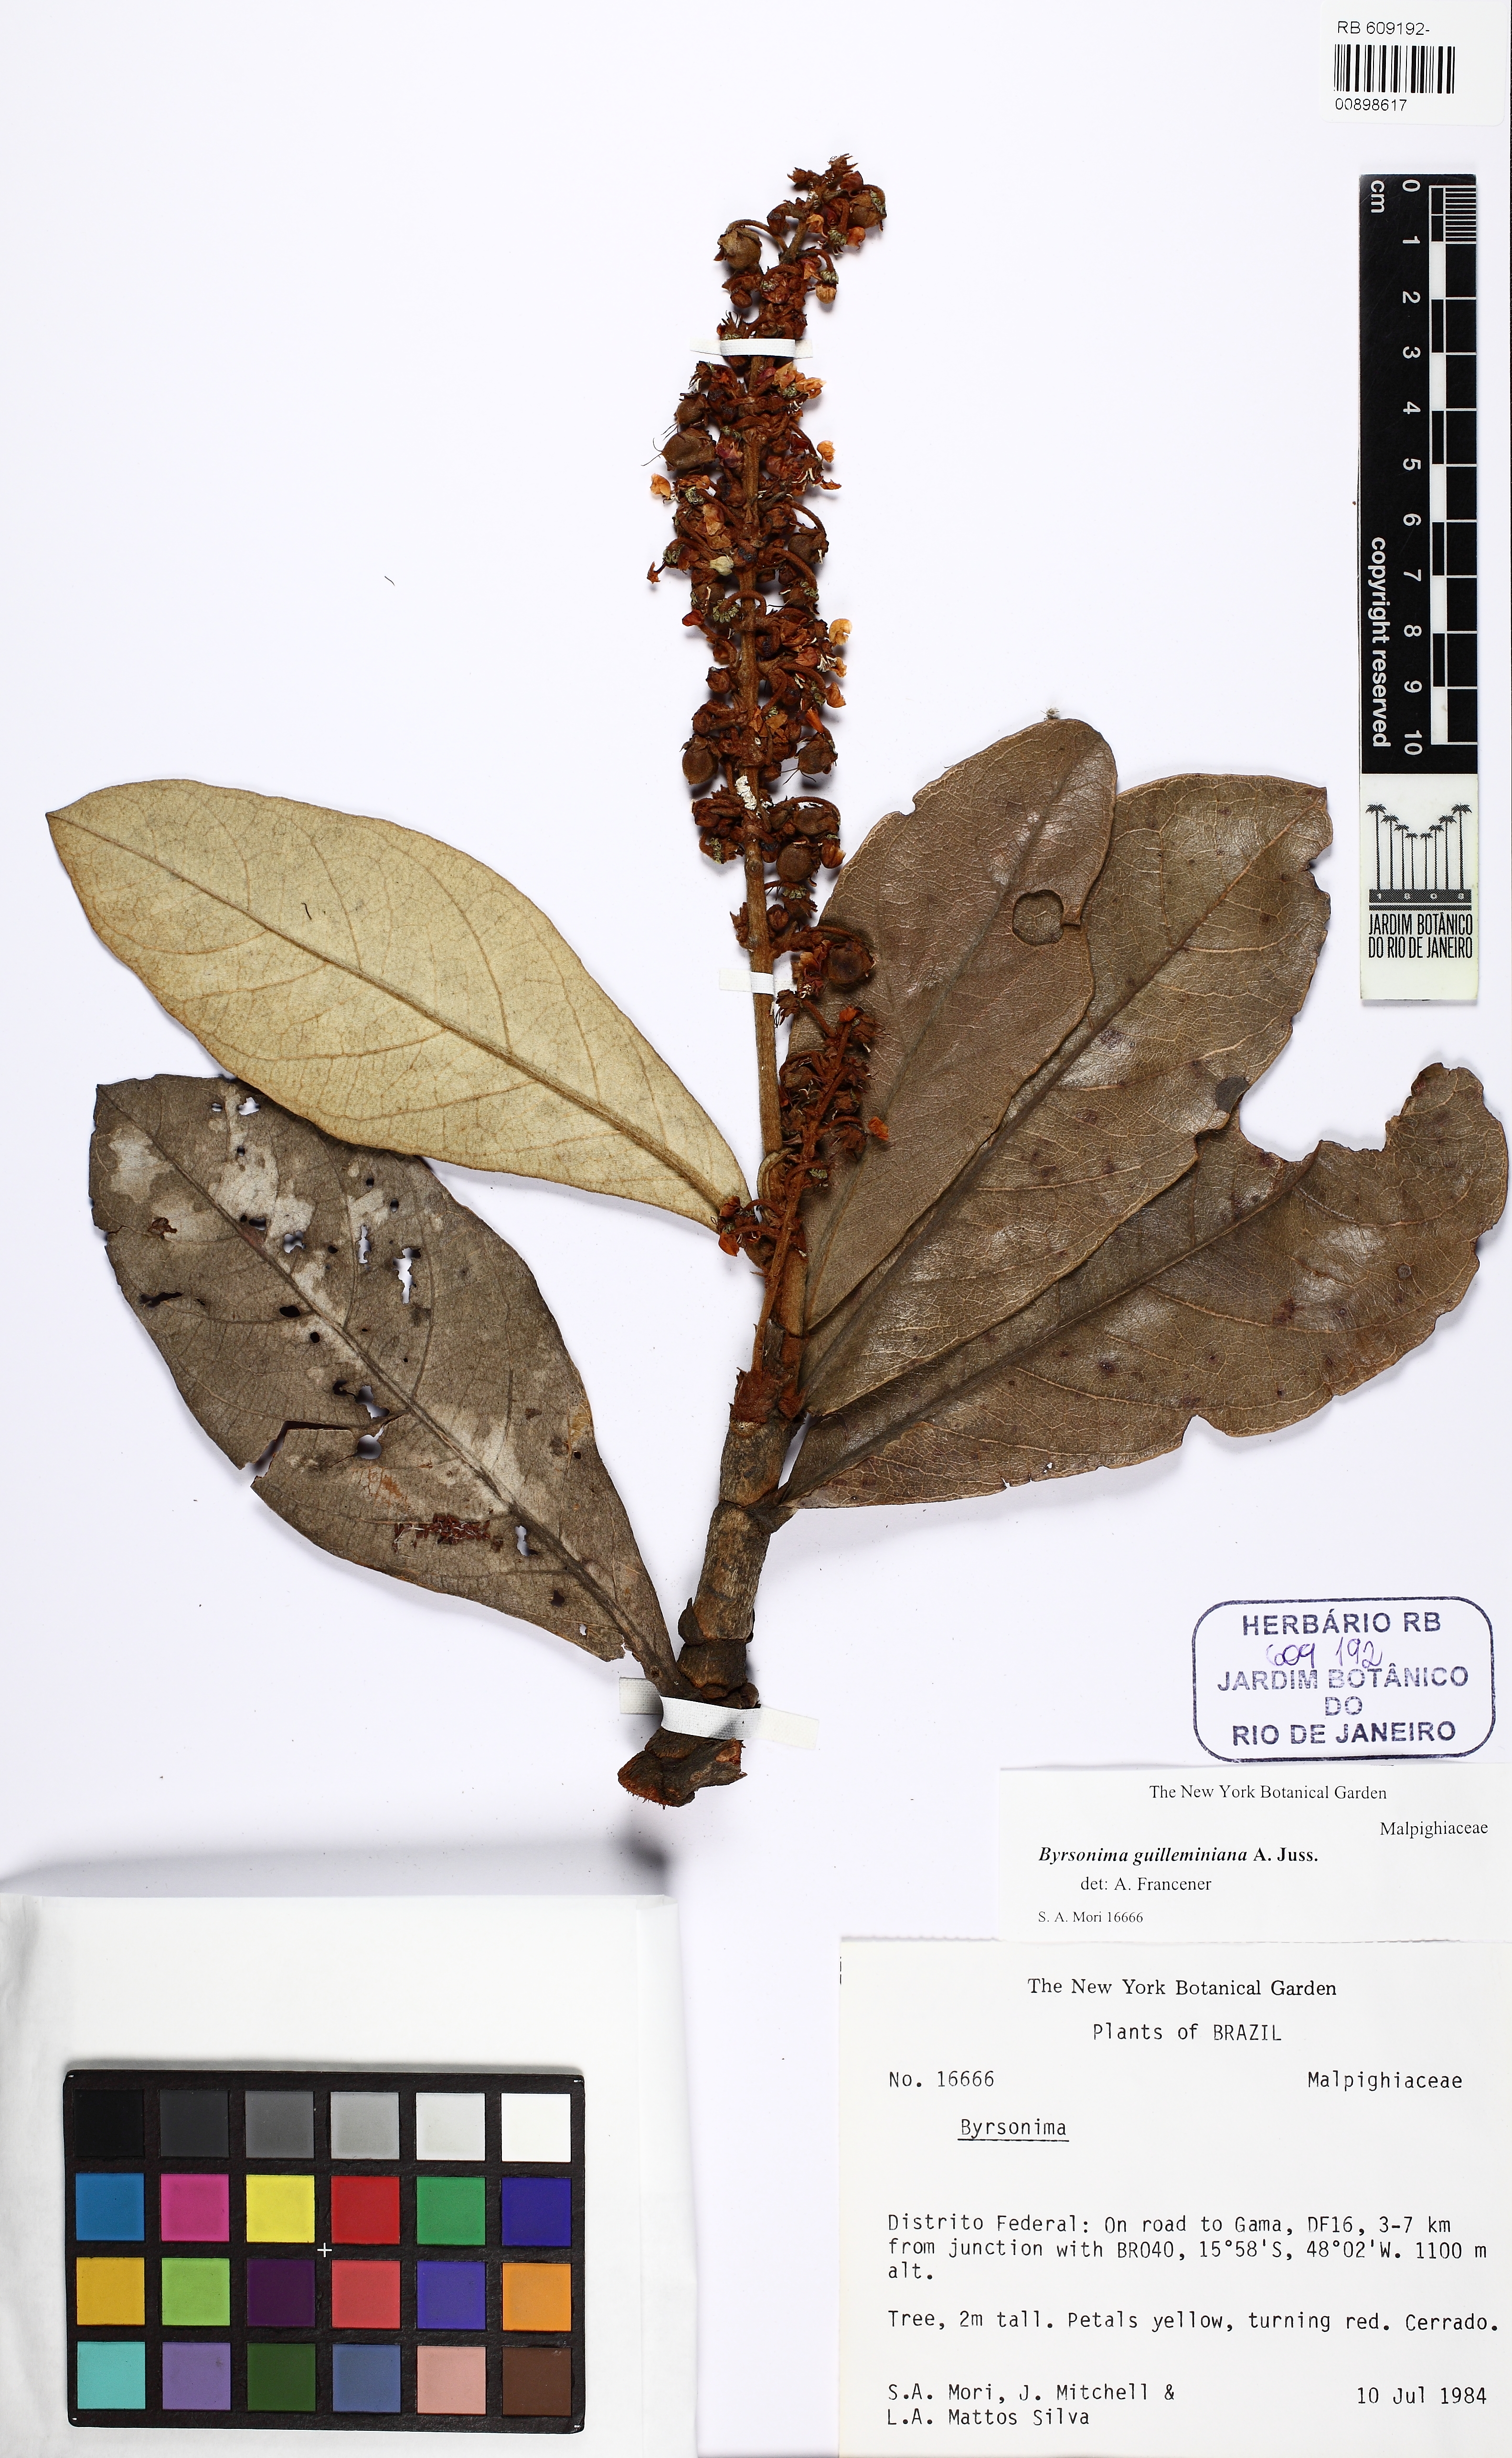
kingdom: Plantae
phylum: Tracheophyta
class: Magnoliopsida
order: Malpighiales
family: Malpighiaceae
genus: Byrsonima
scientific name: Byrsonima guilleminiana
